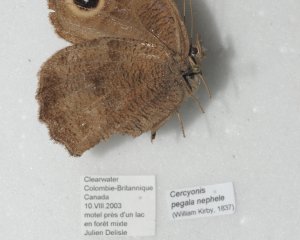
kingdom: Animalia
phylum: Arthropoda
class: Insecta
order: Lepidoptera
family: Nymphalidae
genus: Cercyonis
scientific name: Cercyonis pegala
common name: Common Wood-Nymph
